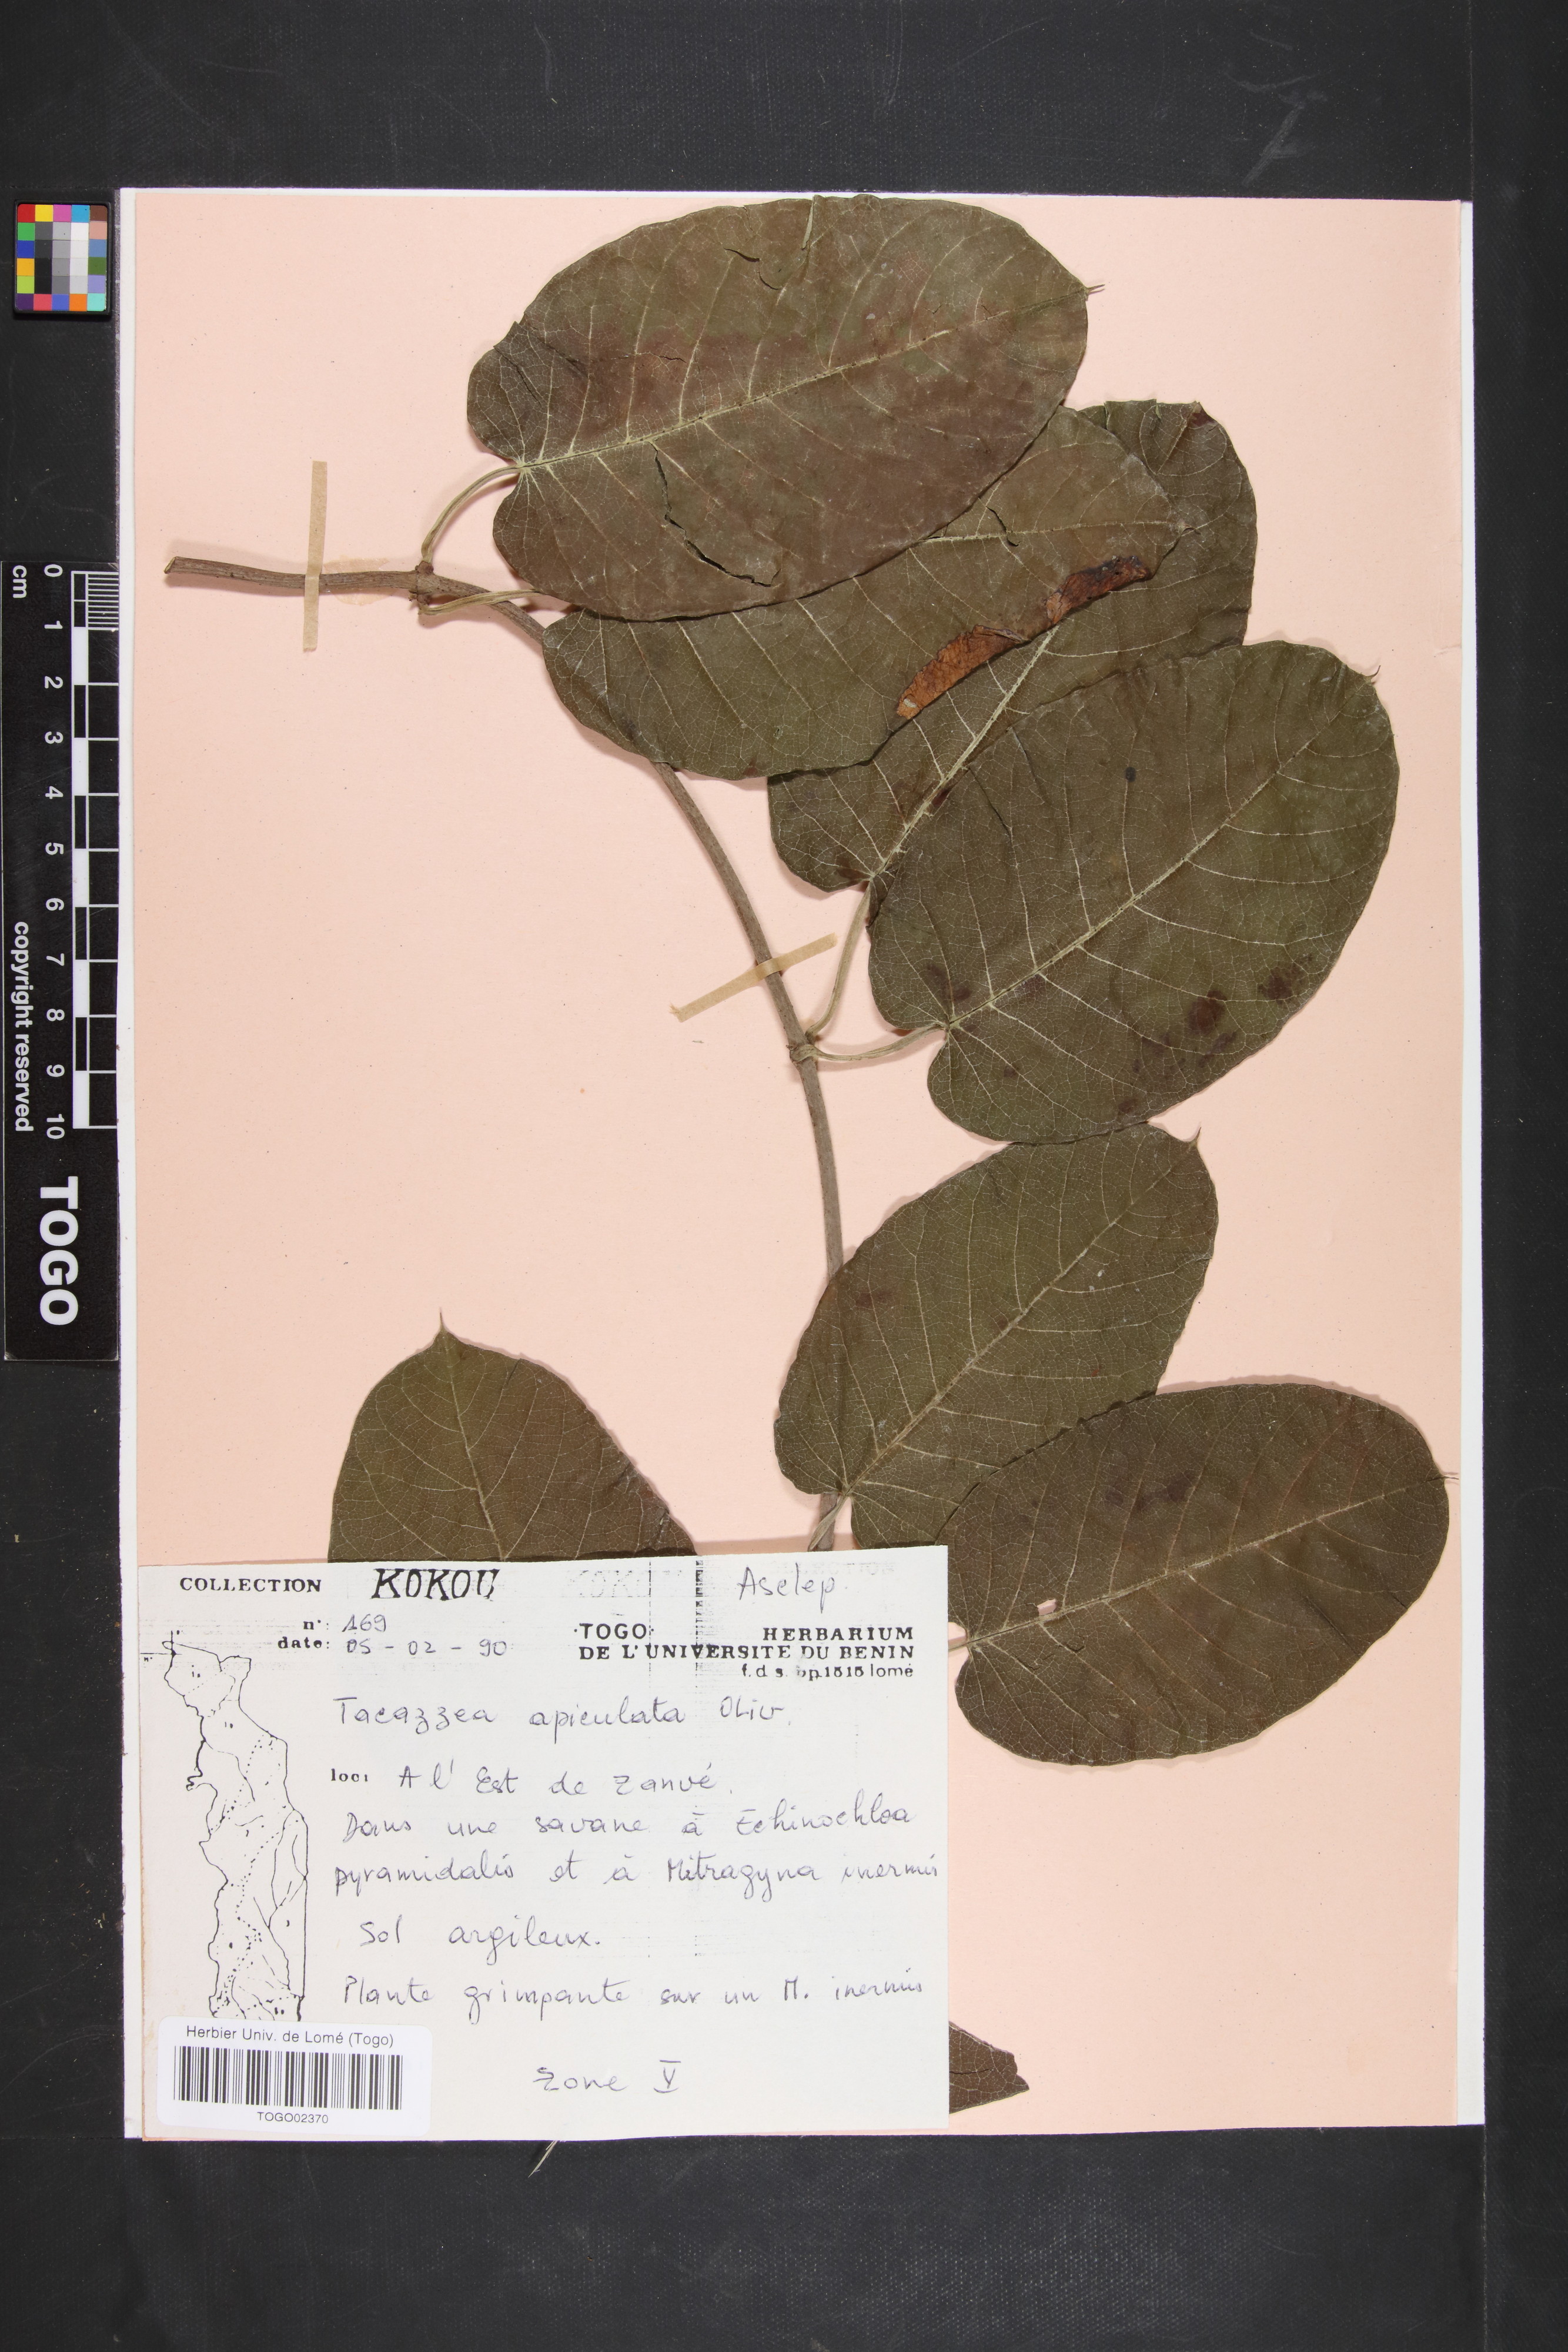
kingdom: Plantae
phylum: Tracheophyta
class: Magnoliopsida
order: Gentianales
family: Apocynaceae
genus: Tacazzea
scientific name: Tacazzea apiculata
